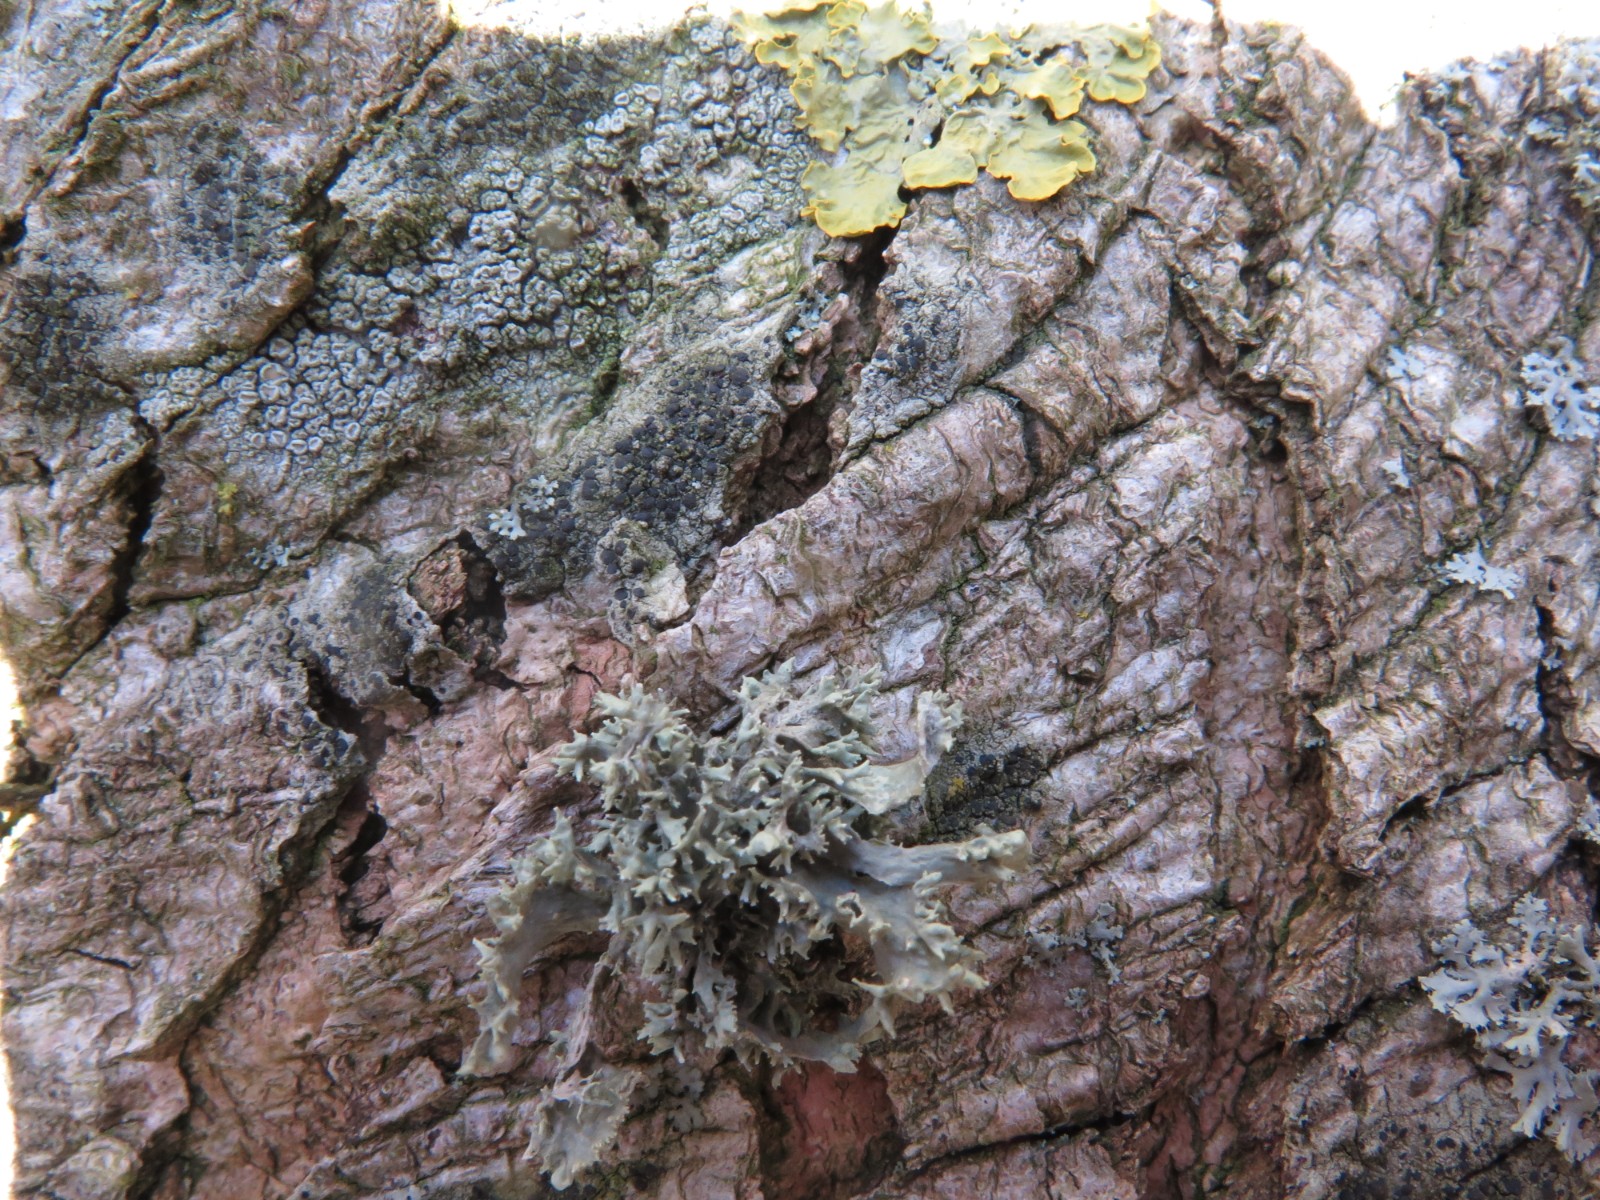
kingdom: Fungi
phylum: Ascomycota
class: Lecanoromycetes
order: Lecanorales
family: Parmeliaceae
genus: Evernia
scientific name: Evernia prunastri
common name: almindelig slåenlav
